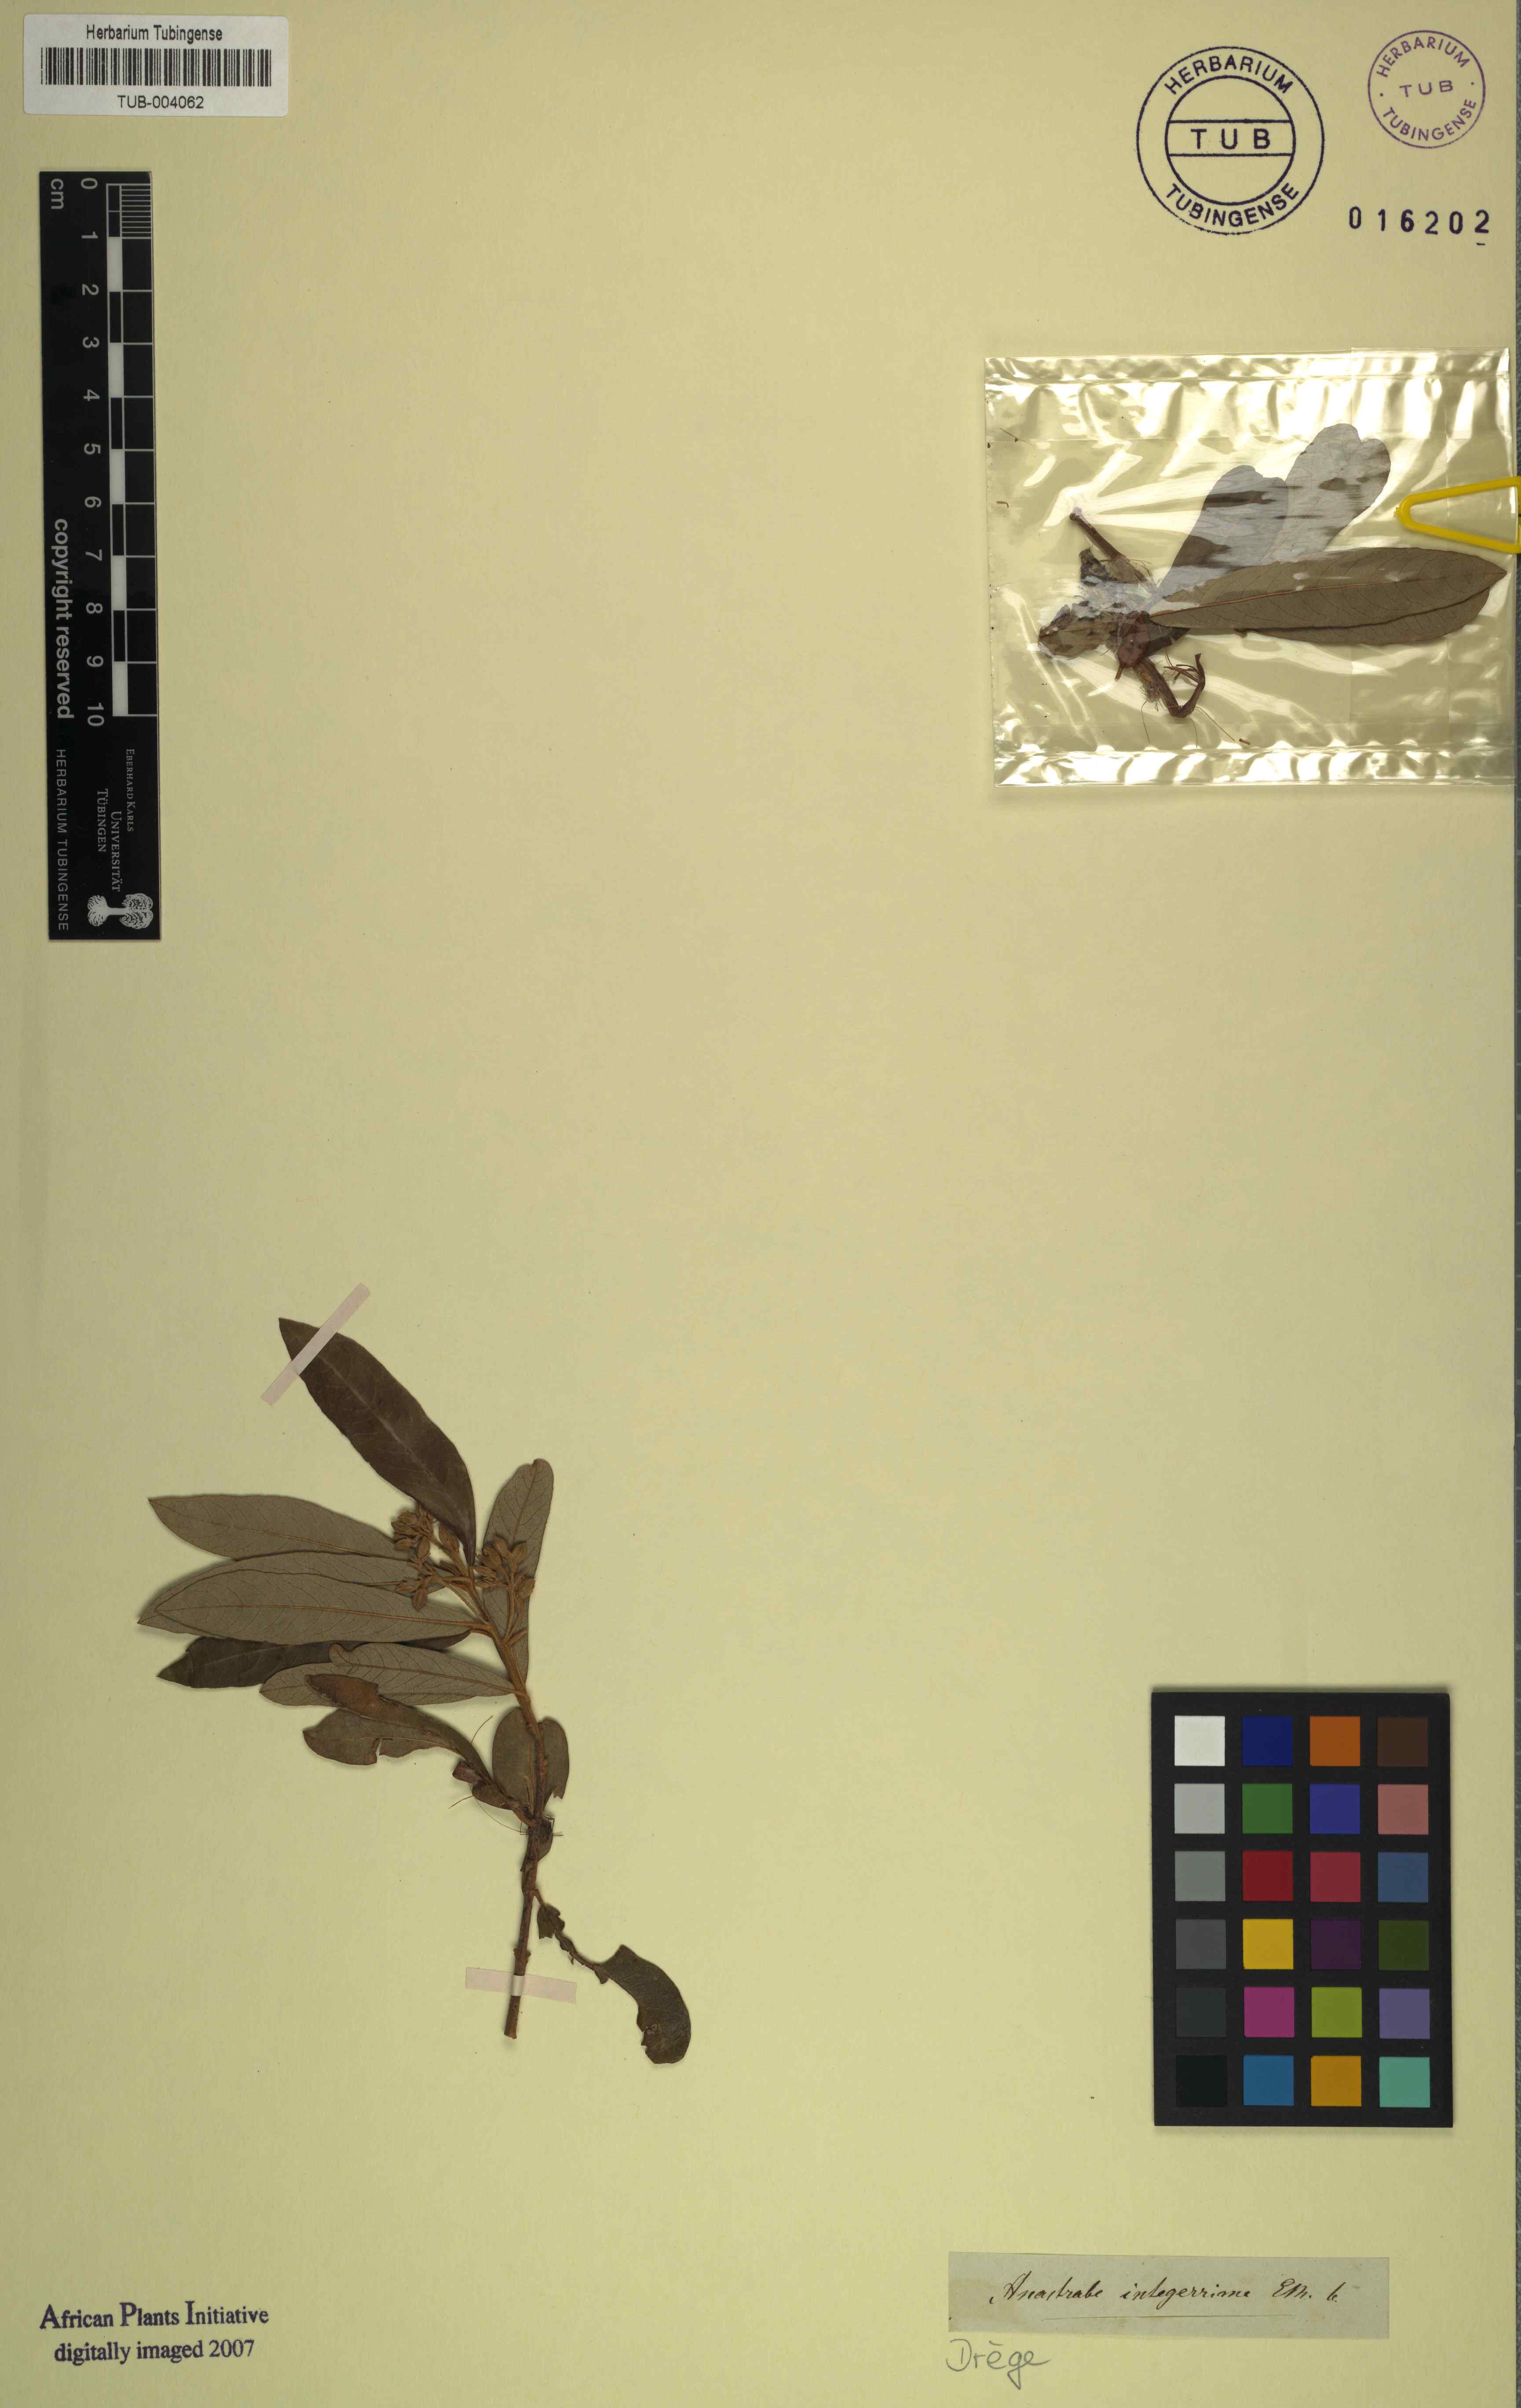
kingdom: Plantae
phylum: Tracheophyta
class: Magnoliopsida
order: Lamiales
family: Stilbaceae
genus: Anastrabe
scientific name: Anastrabe integerrima
